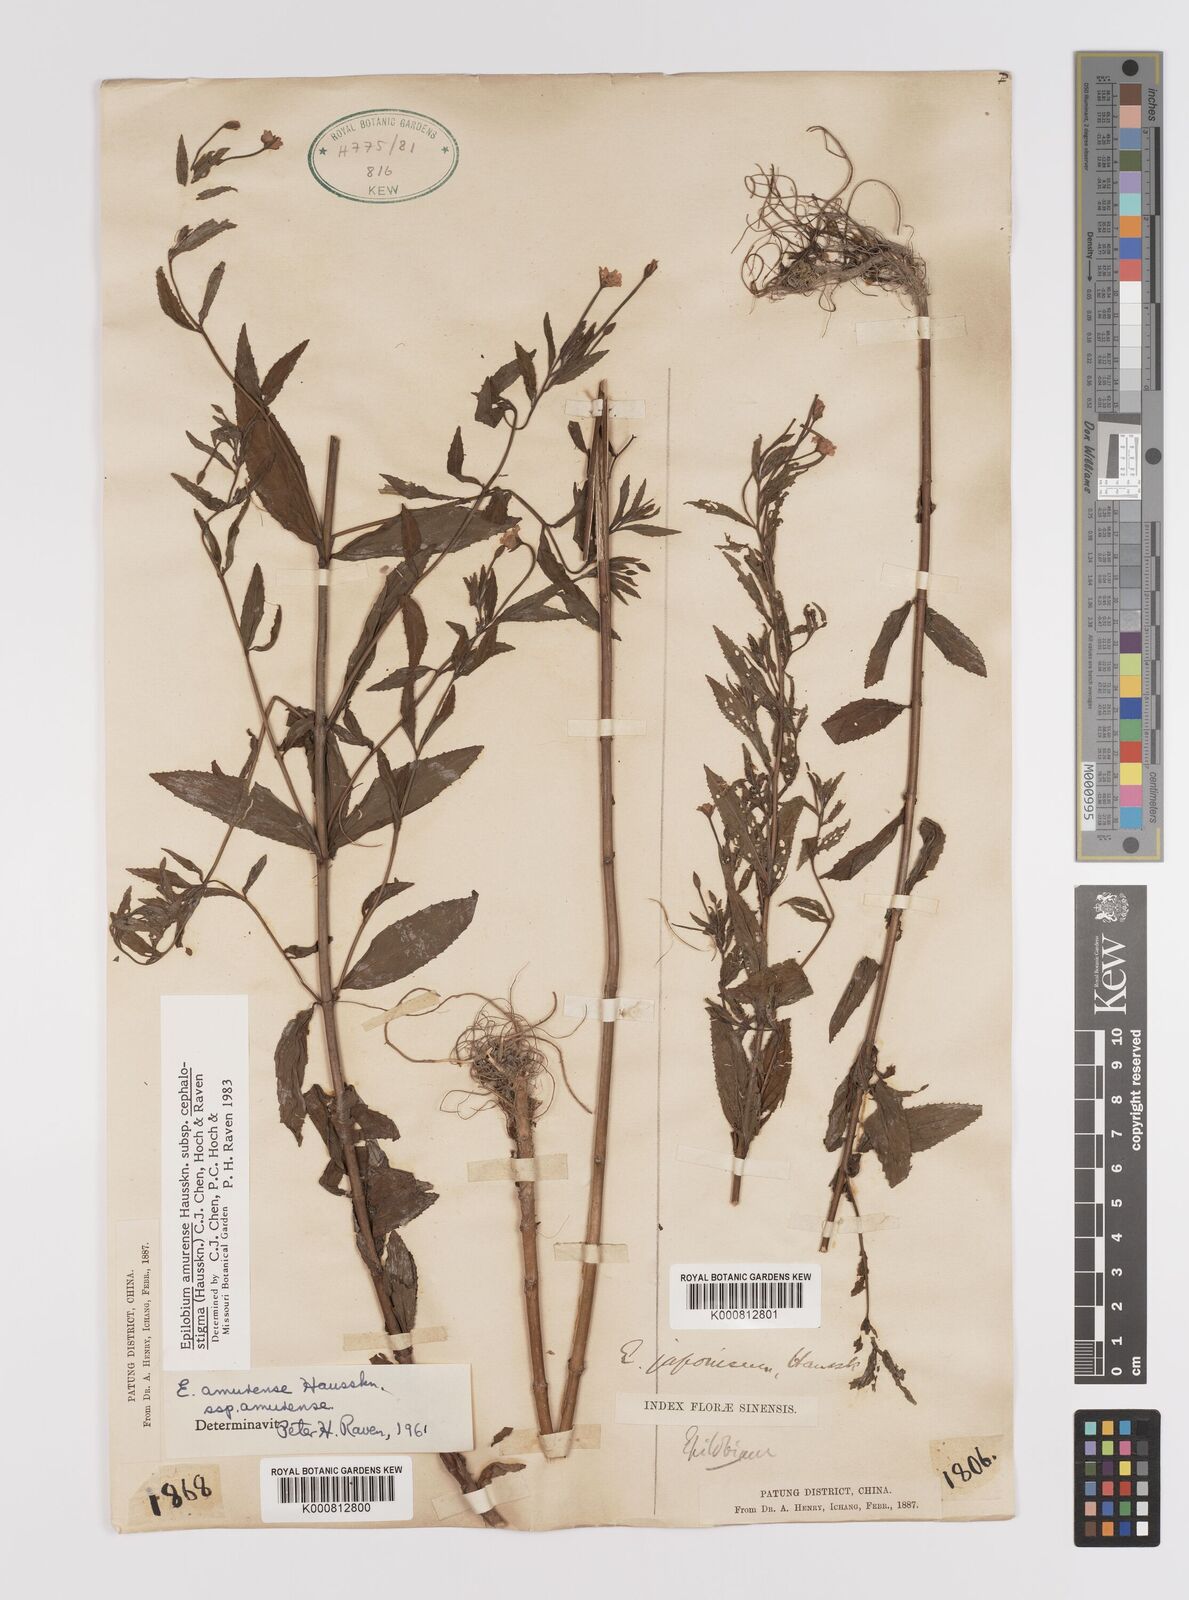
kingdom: Plantae
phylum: Tracheophyta
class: Magnoliopsida
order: Myrtales
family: Onagraceae
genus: Epilobium
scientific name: Epilobium amurense
